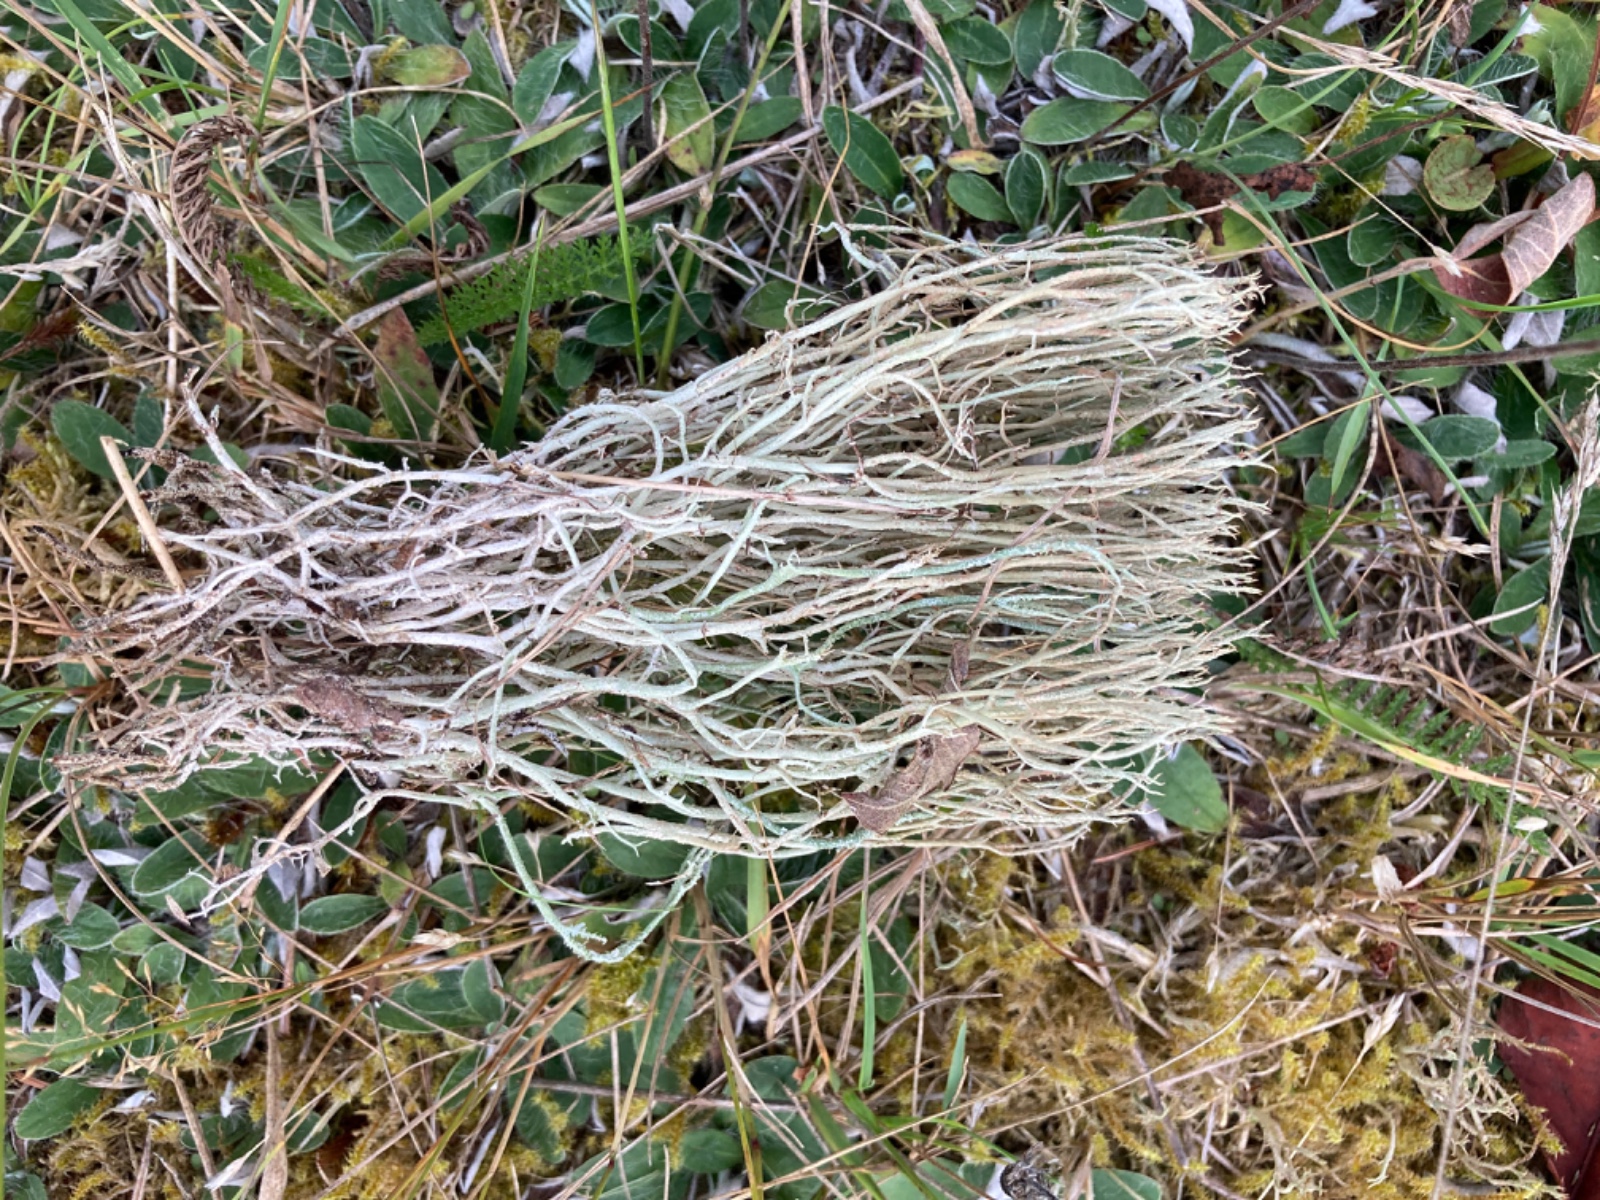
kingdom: Fungi
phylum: Ascomycota
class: Lecanoromycetes
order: Lecanorales
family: Cladoniaceae
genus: Cladonia
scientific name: Cladonia uncialis
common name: pigget bægerlav
